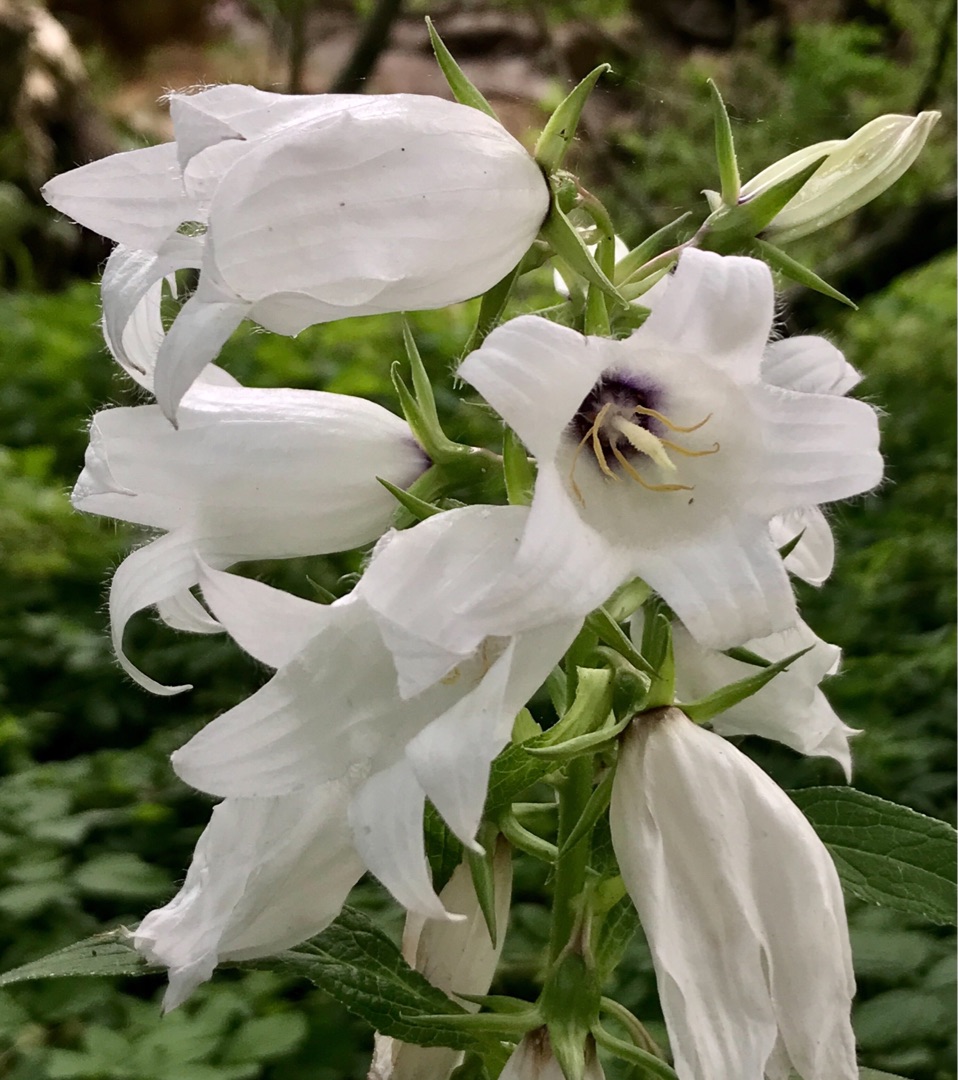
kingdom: Plantae
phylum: Tracheophyta
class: Magnoliopsida
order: Asterales
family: Campanulaceae
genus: Campanula
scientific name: Campanula latifolia
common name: Bredbladet klokke
